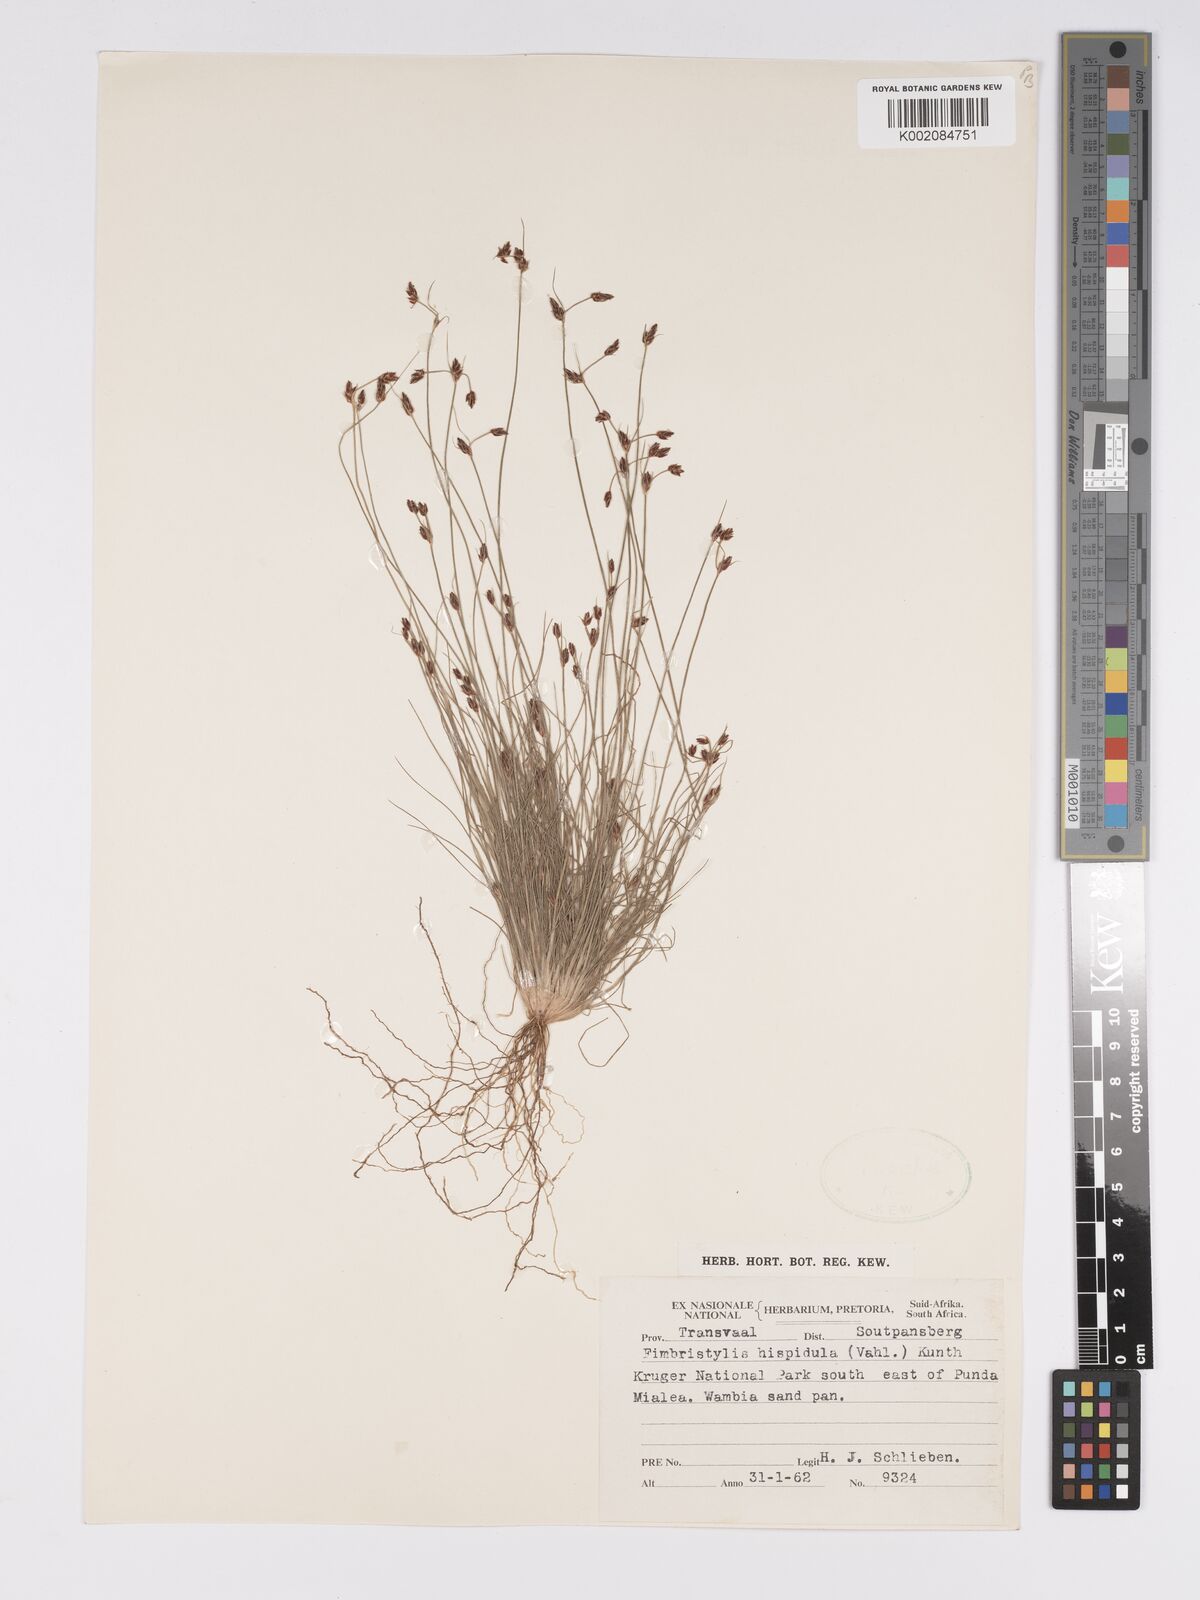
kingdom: Plantae
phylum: Tracheophyta
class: Liliopsida
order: Poales
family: Cyperaceae
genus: Bulbostylis
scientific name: Bulbostylis
